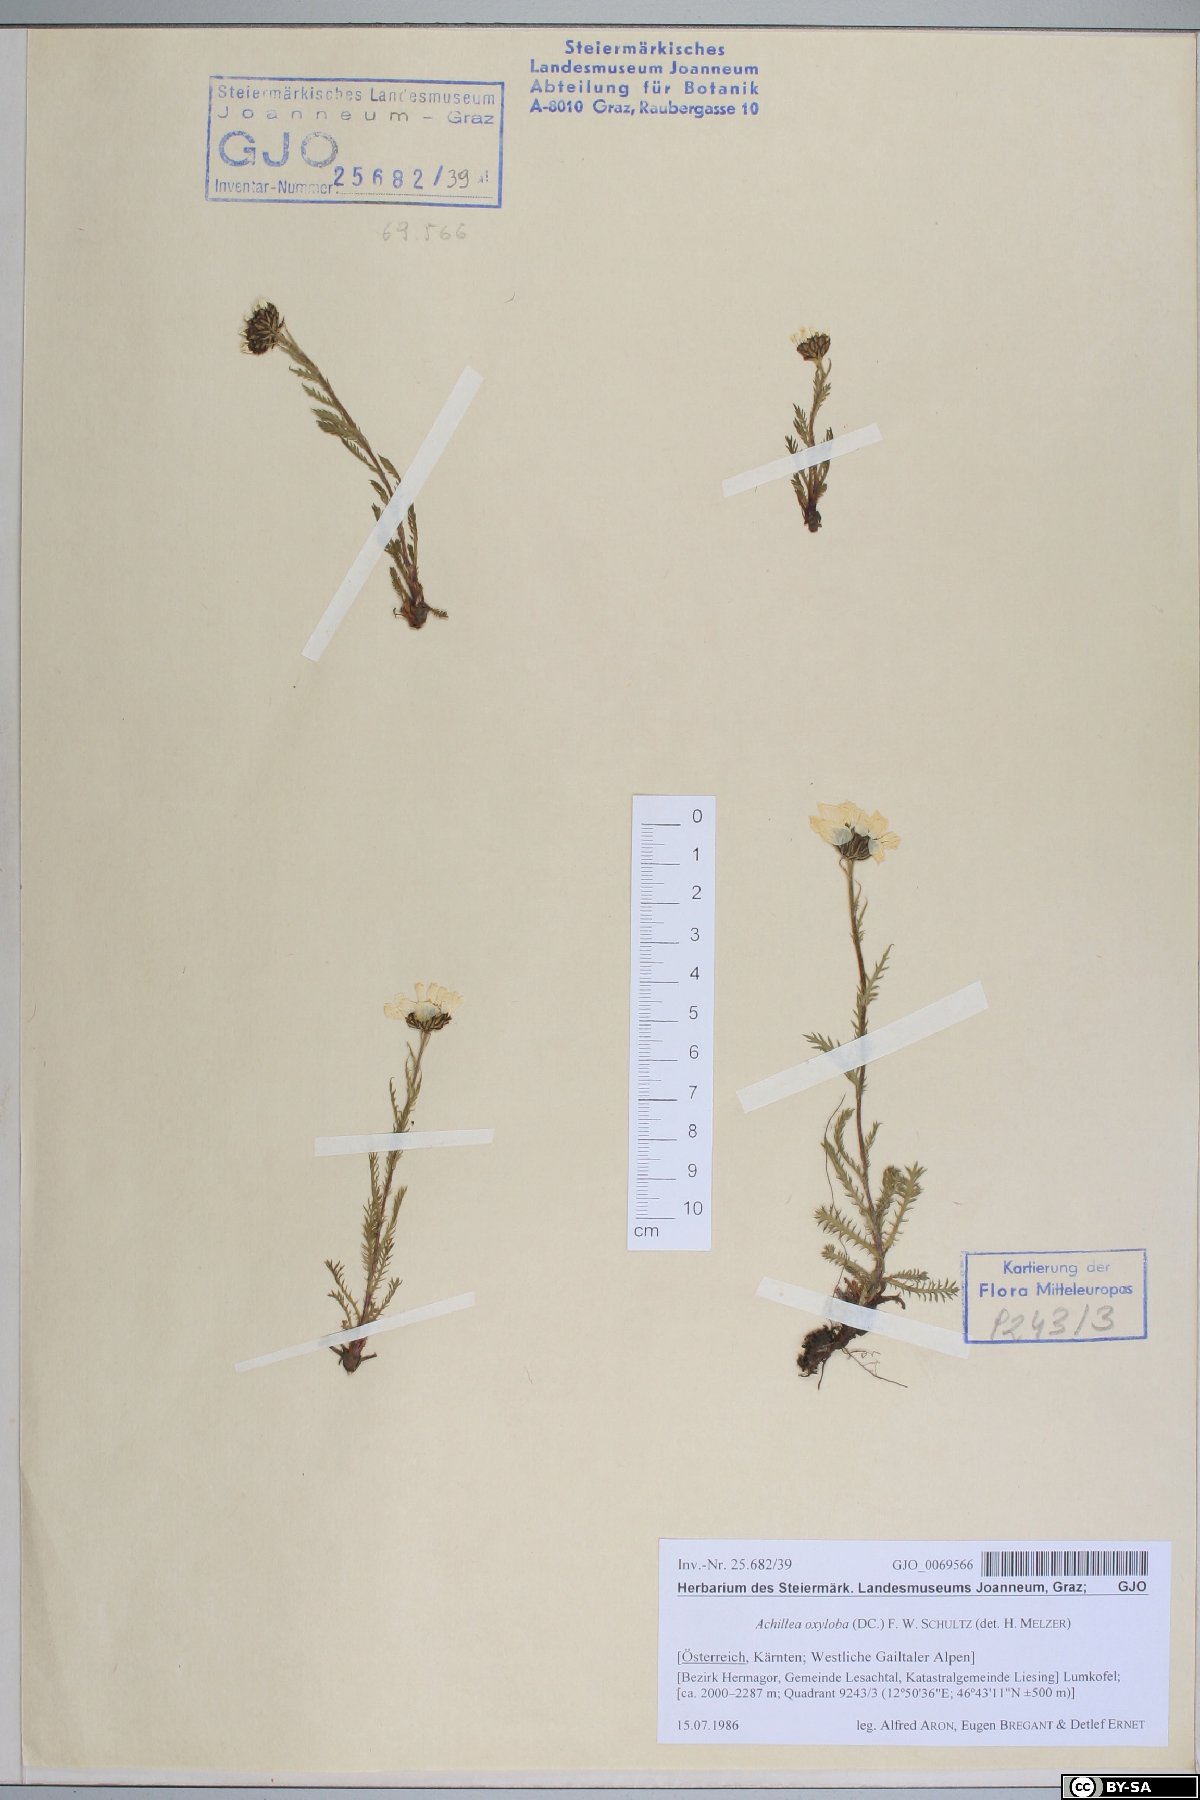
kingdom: Plantae
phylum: Tracheophyta
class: Magnoliopsida
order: Asterales
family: Asteraceae
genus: Achillea
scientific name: Achillea oxyloba
